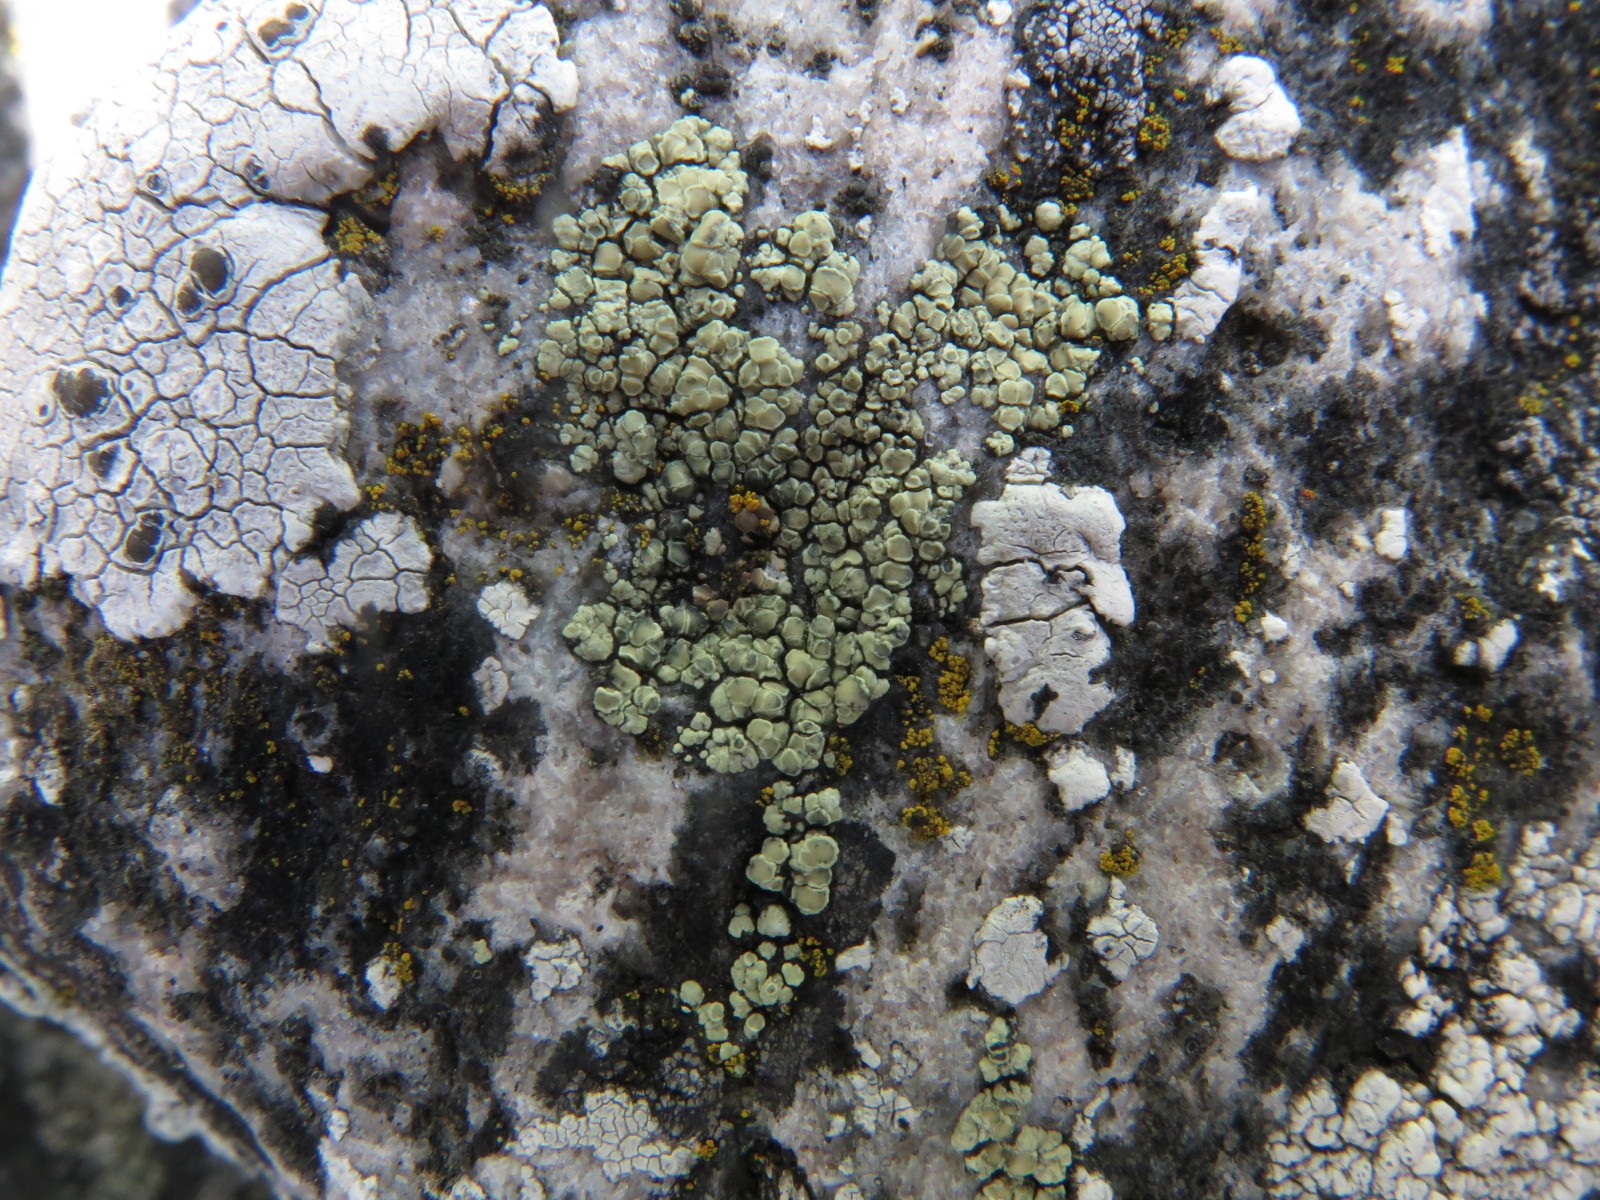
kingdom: Fungi
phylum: Ascomycota
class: Lecanoromycetes
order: Lecanorales
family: Lecanoraceae
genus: Lecanora
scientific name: Lecanora polytropa
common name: bleggrøn kantskivelav
